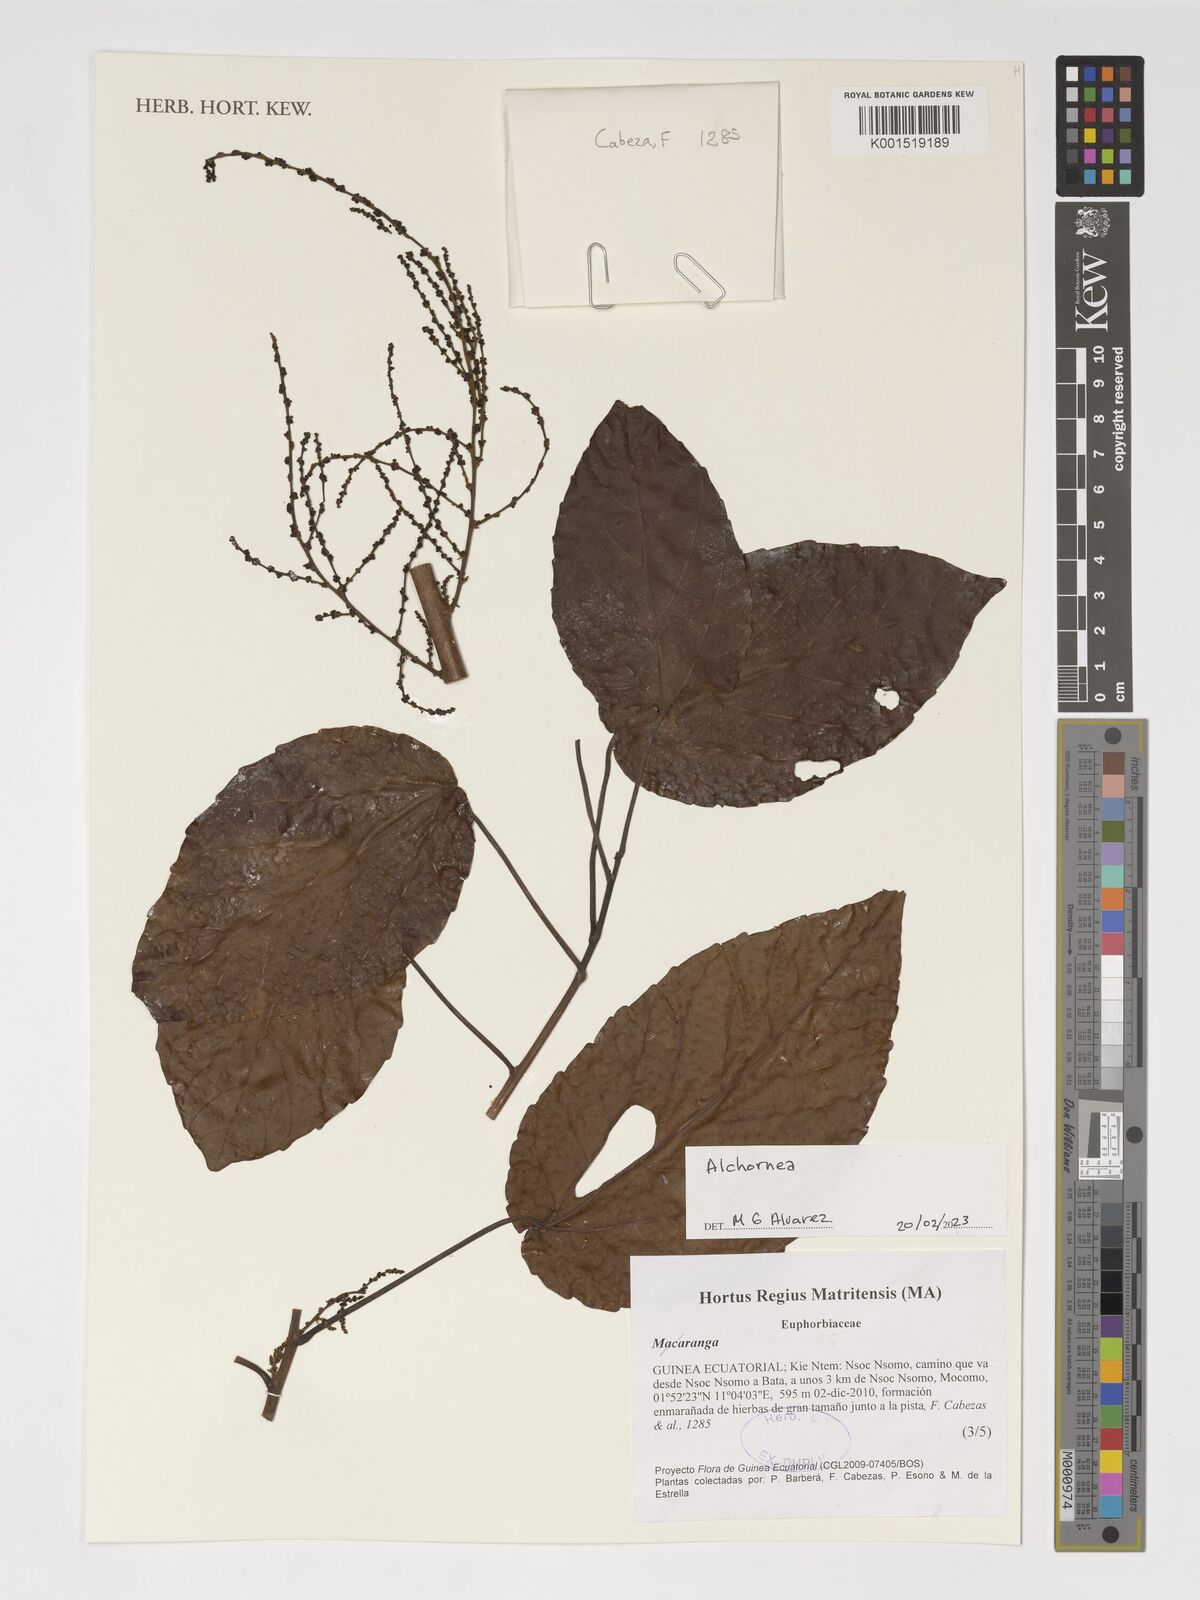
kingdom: Plantae
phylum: Tracheophyta
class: Magnoliopsida
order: Malpighiales
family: Euphorbiaceae
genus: Alchornea
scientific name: Alchornea
